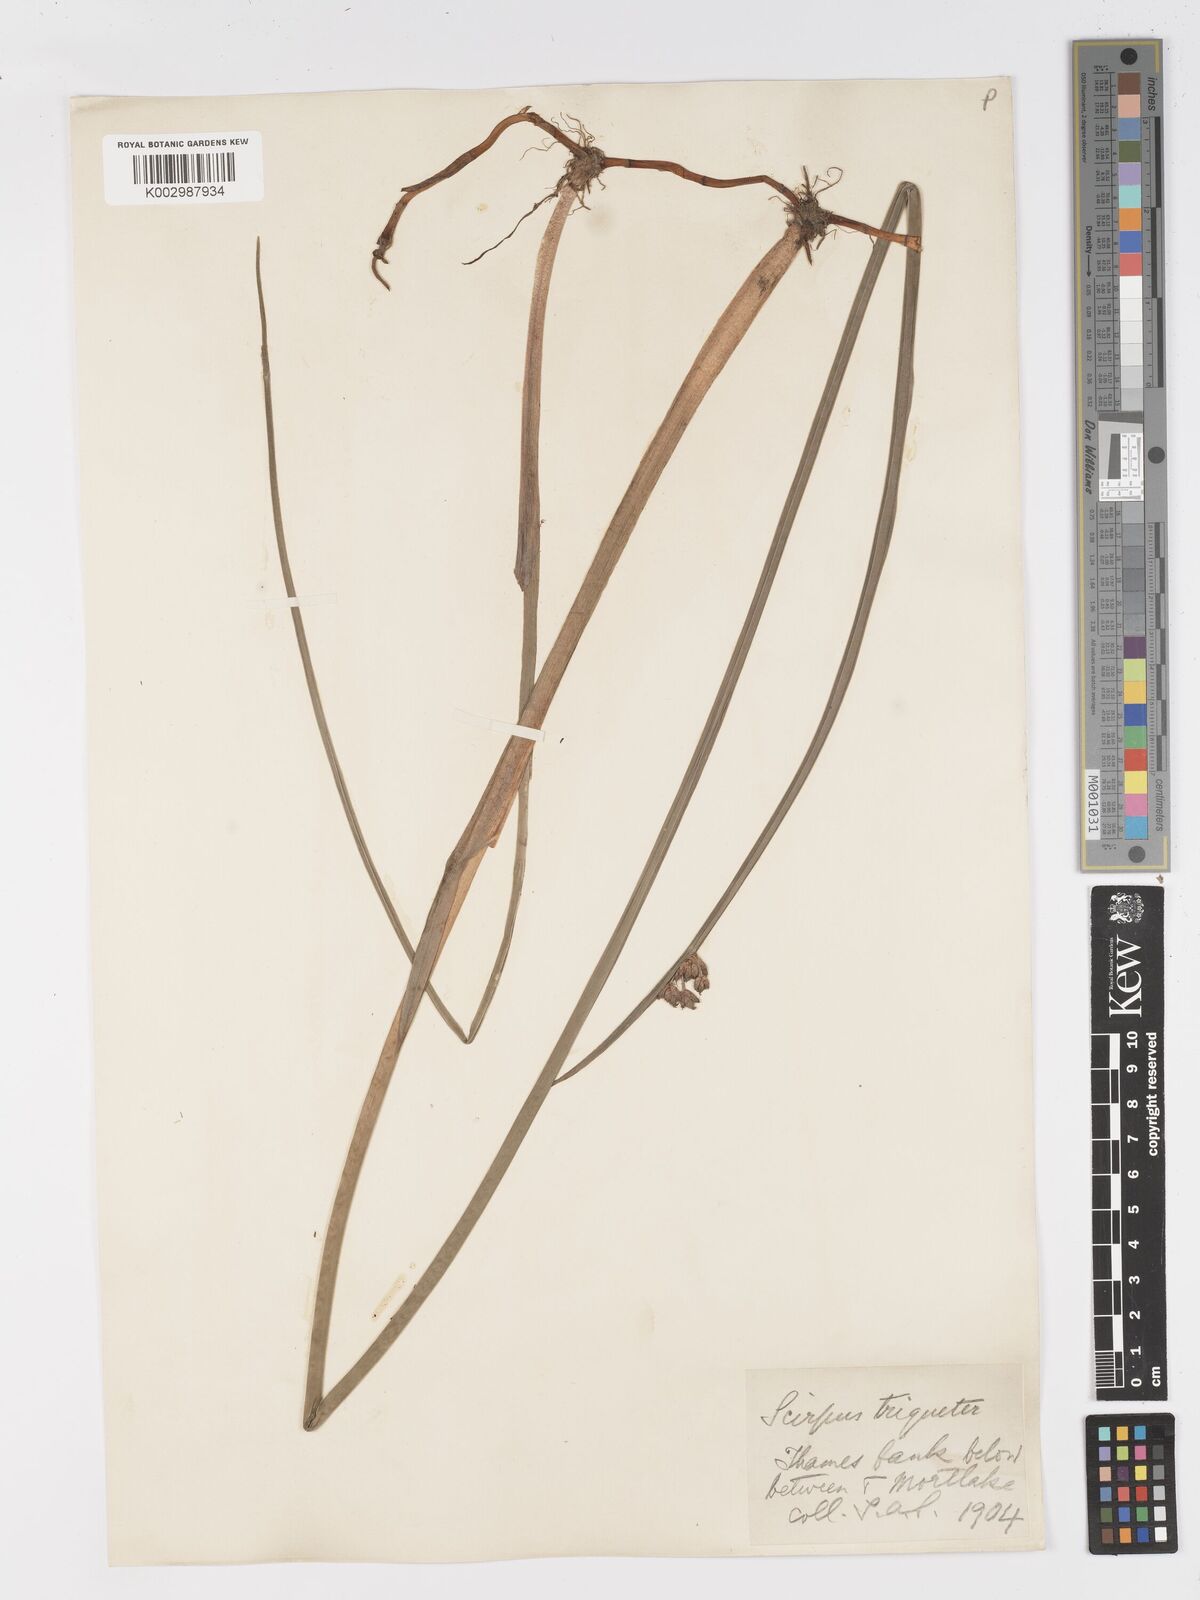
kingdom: Plantae
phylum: Tracheophyta
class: Liliopsida
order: Poales
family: Cyperaceae
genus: Schoenoplectus
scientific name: Schoenoplectus triqueter
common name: Triangular club-rush
